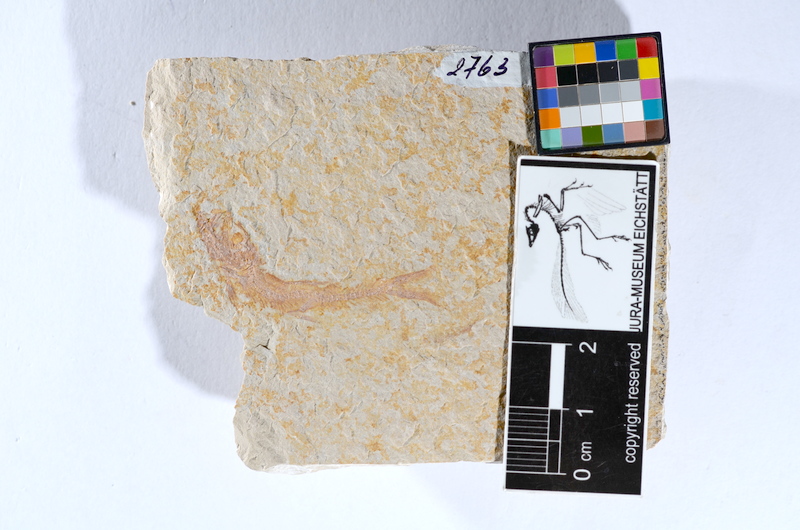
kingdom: Animalia
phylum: Chordata
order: Salmoniformes
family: Orthogonikleithridae
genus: Leptolepides
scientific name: Leptolepides sprattiformis
